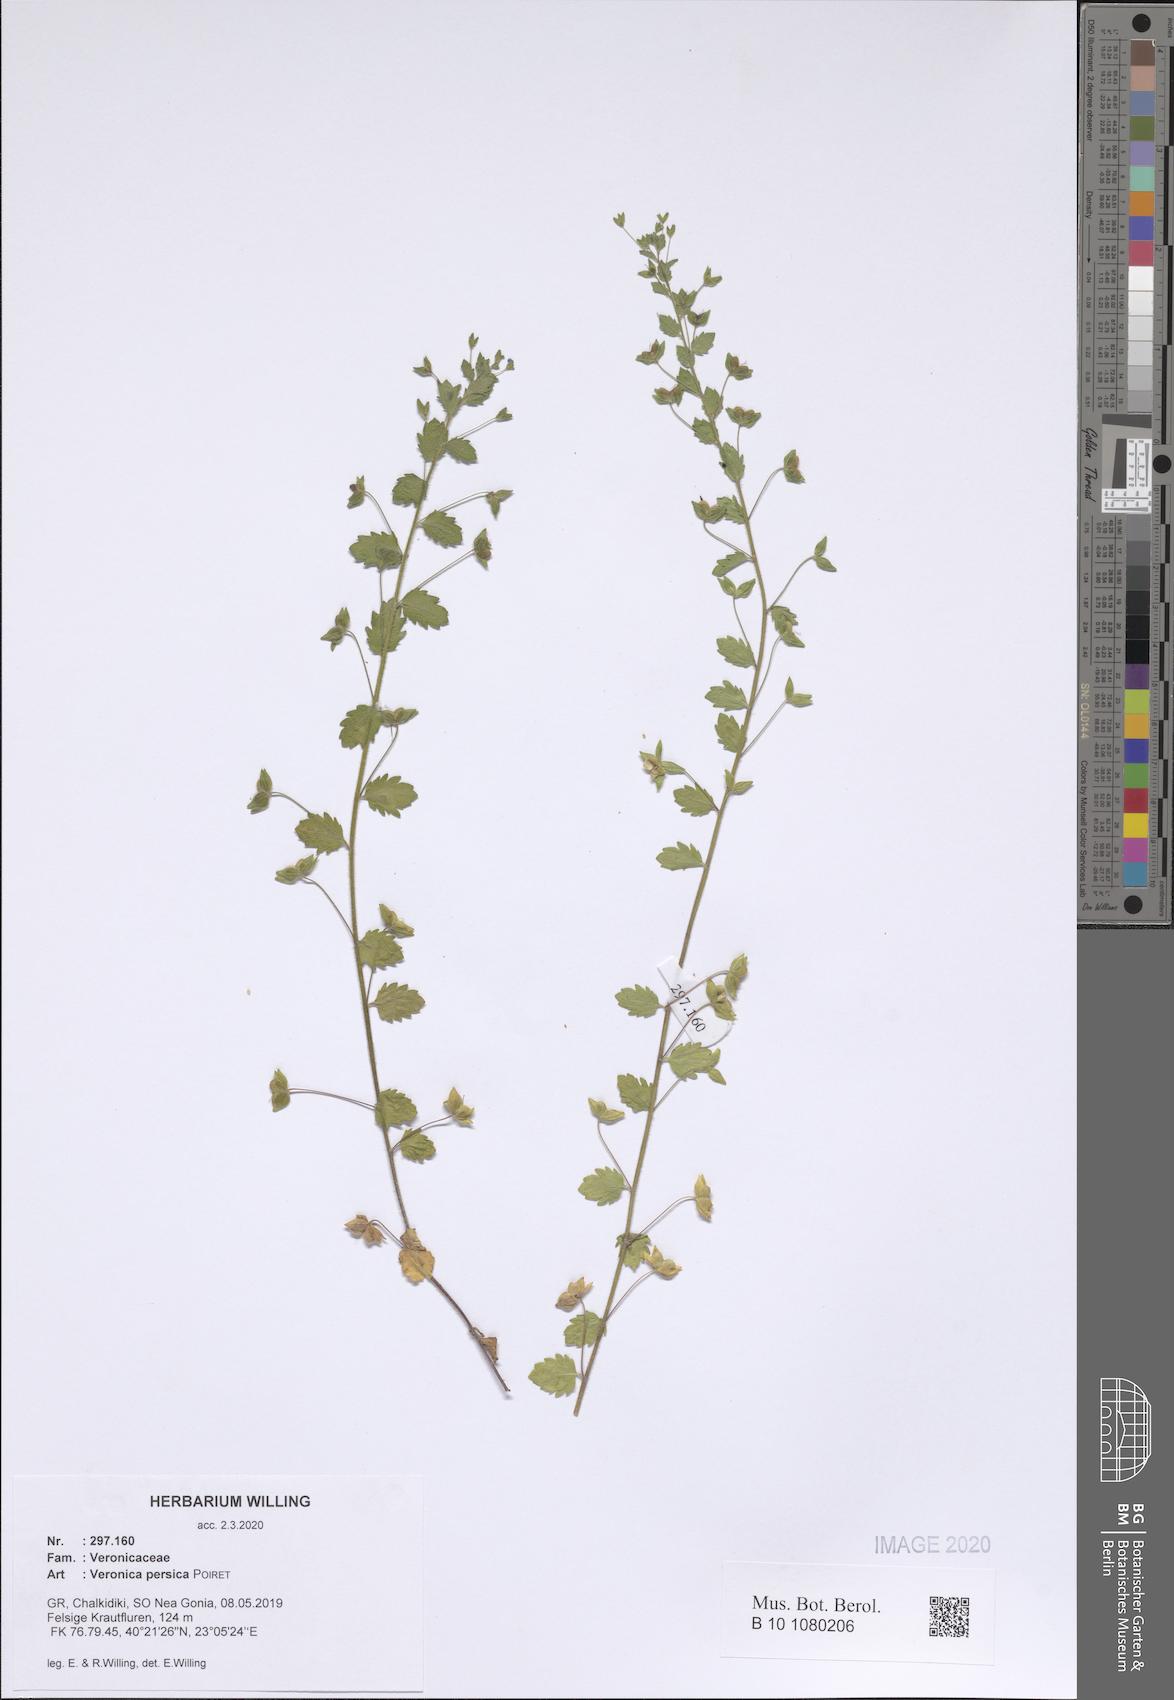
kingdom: Plantae
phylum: Tracheophyta
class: Magnoliopsida
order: Lamiales
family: Plantaginaceae
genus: Veronica
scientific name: Veronica persica
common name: Common field-speedwell
